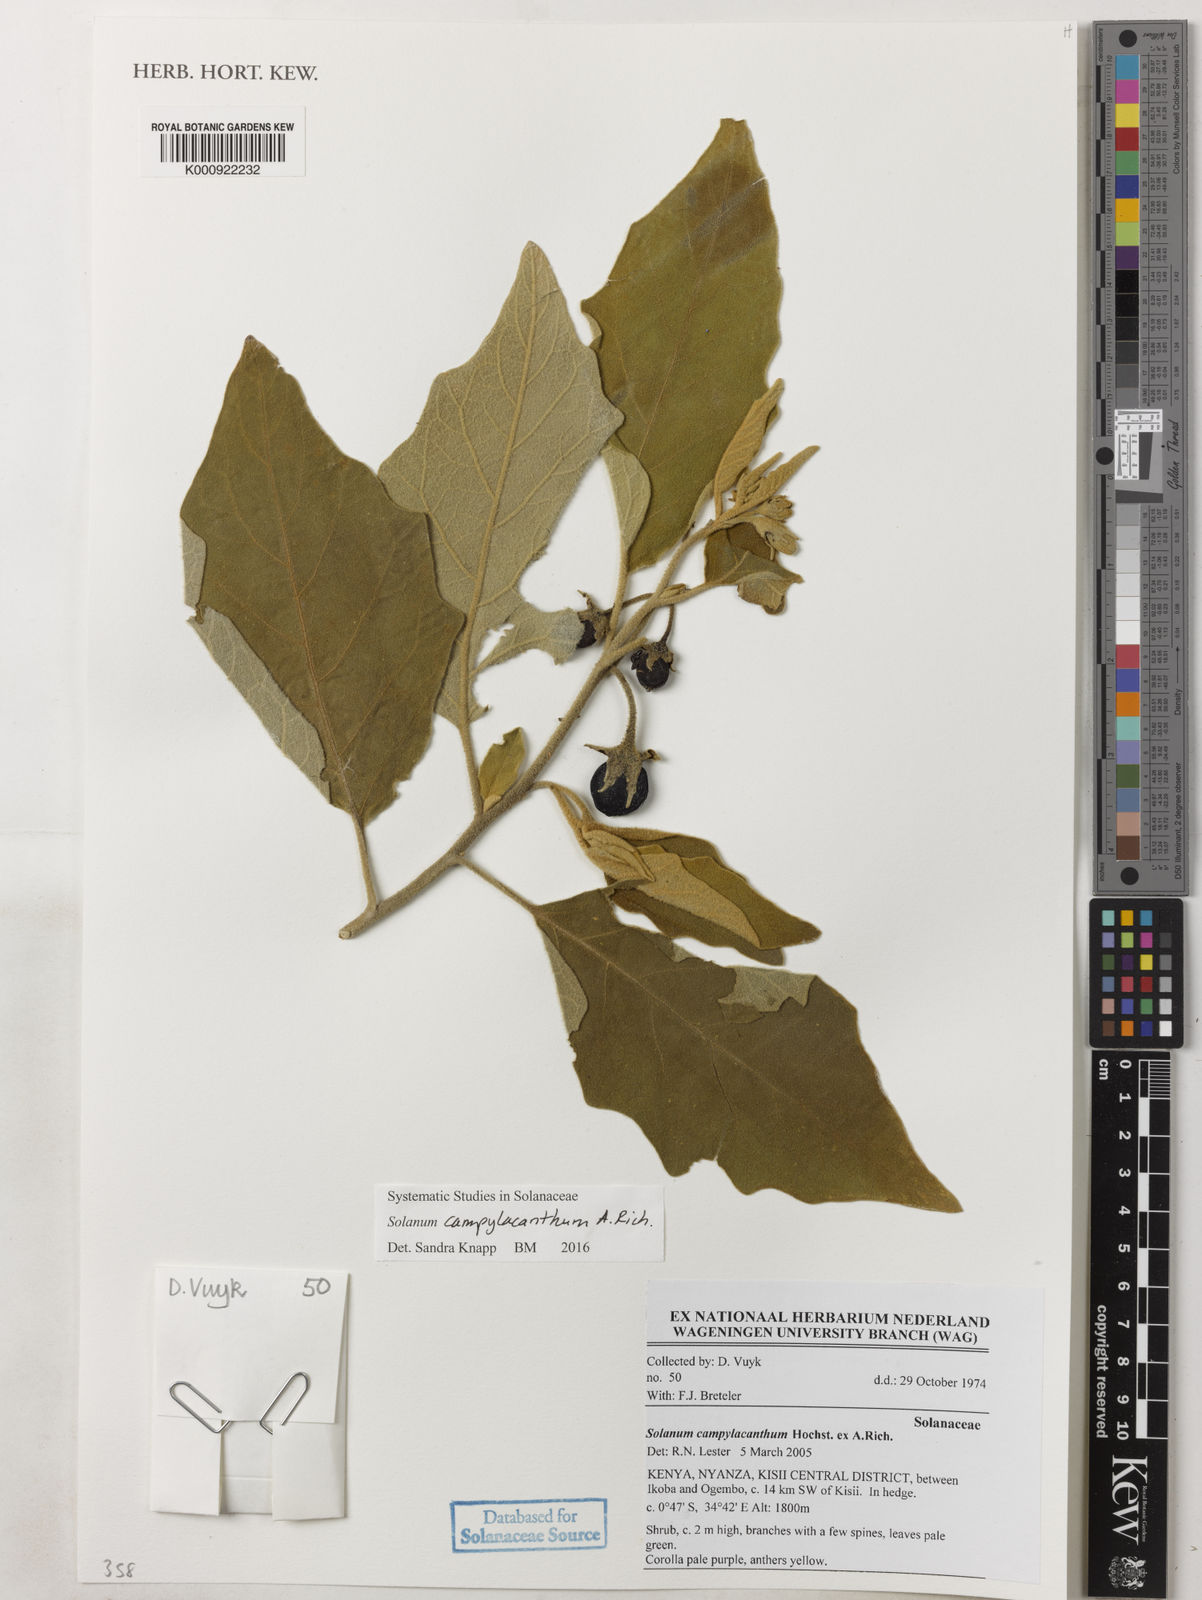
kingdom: Plantae
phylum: Tracheophyta
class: Magnoliopsida
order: Solanales
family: Solanaceae
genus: Solanum
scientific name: Solanum campylacanthum
